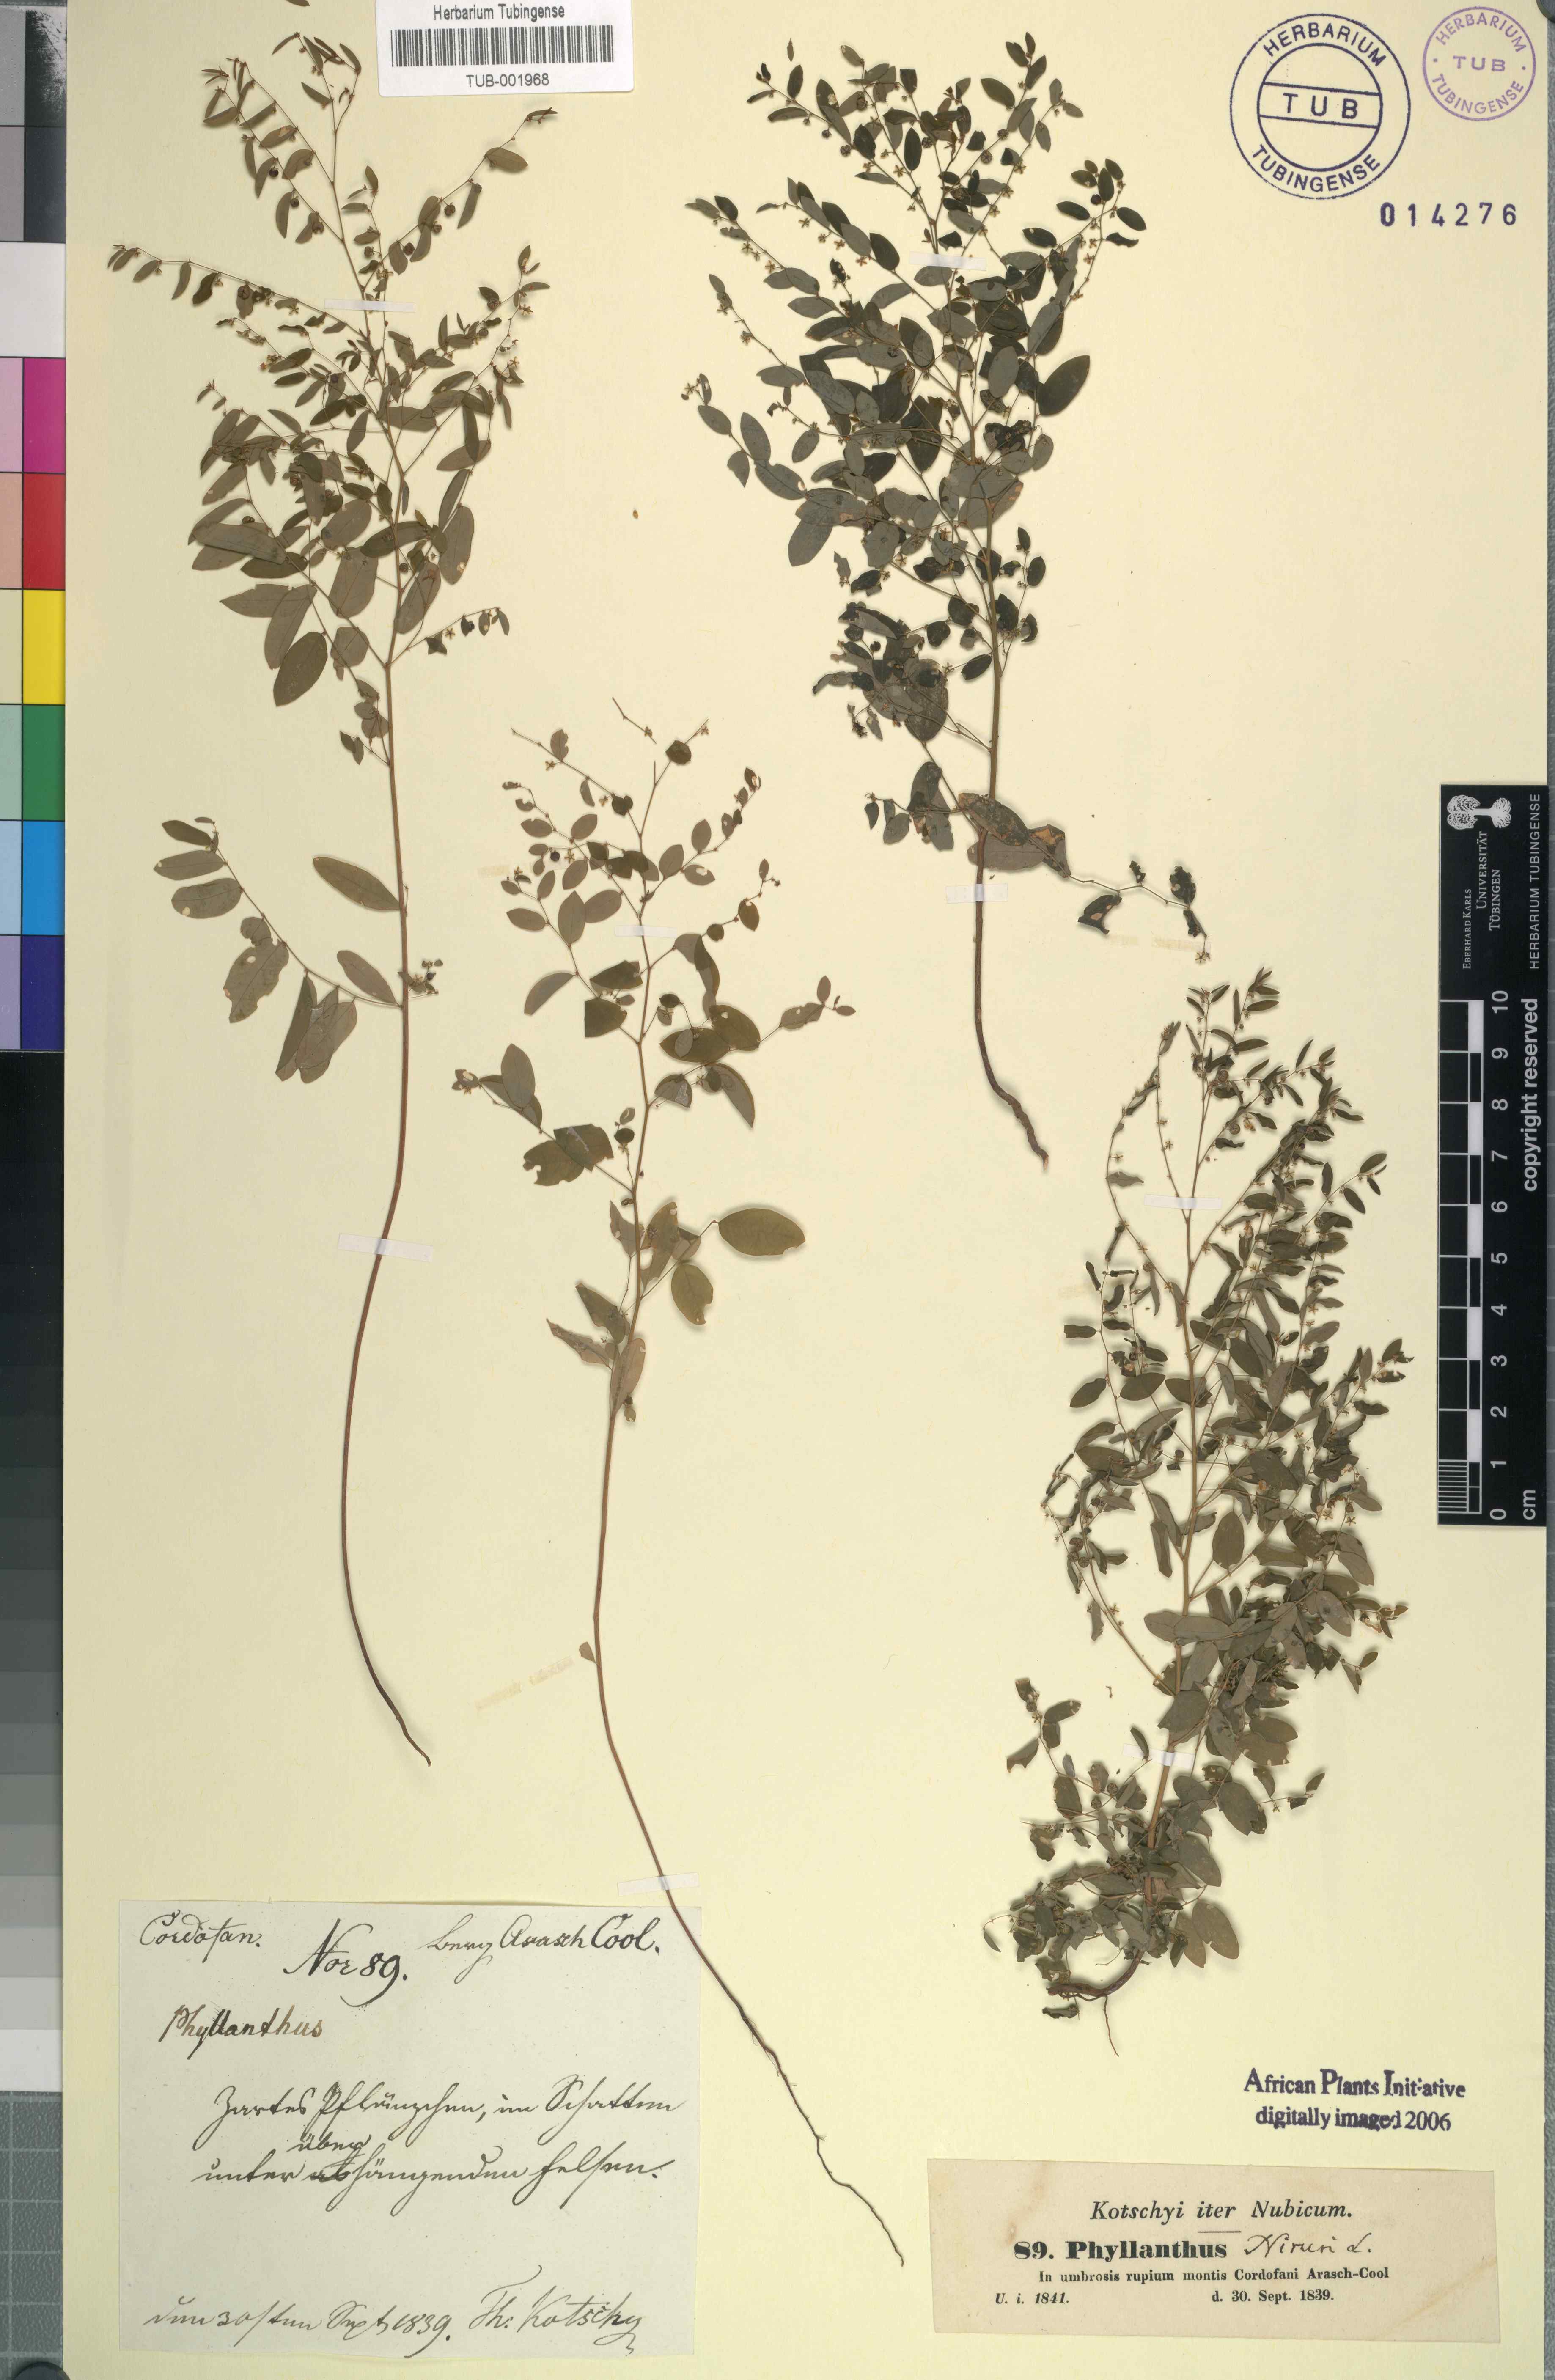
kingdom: Plantae
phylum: Tracheophyta
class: Magnoliopsida
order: Malpighiales
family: Phyllanthaceae
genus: Phyllanthus
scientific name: Phyllanthus niruri
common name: Niruri
